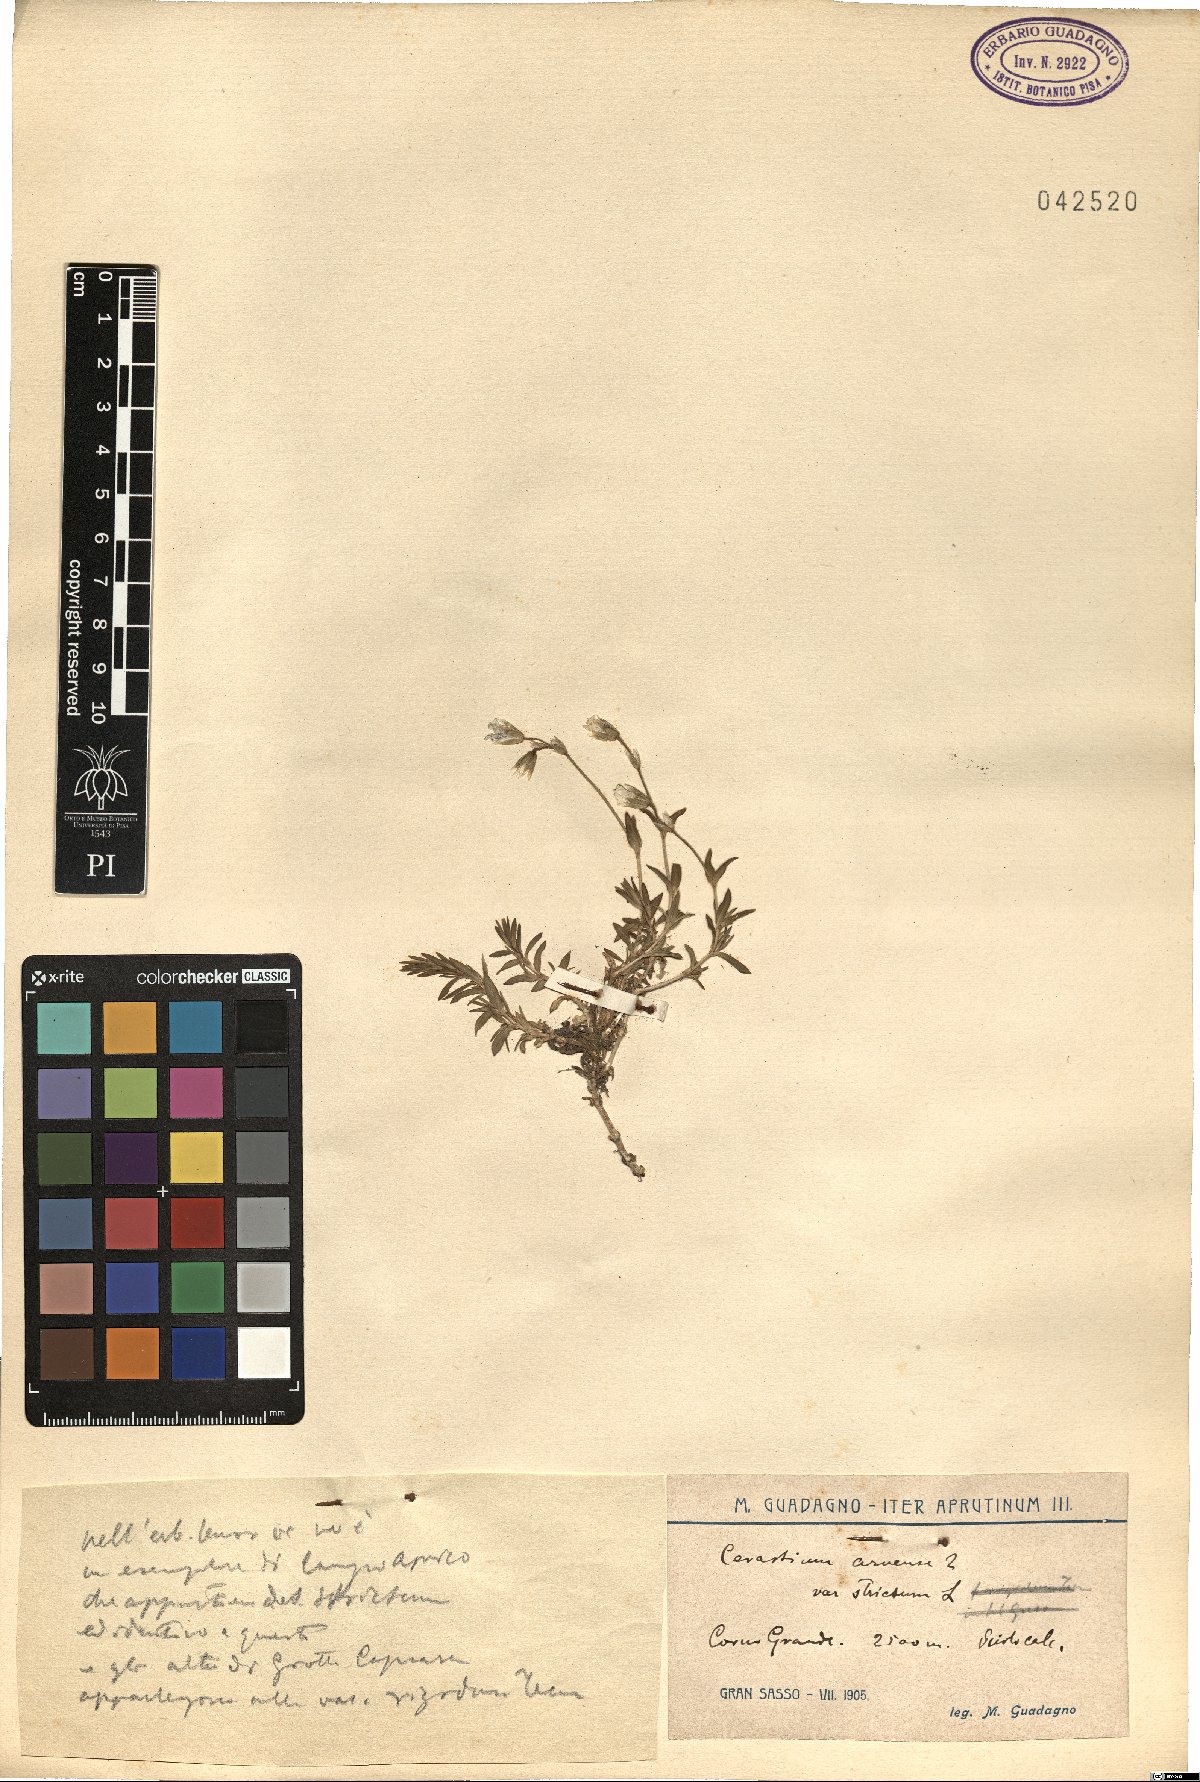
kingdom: Plantae
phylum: Tracheophyta
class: Magnoliopsida
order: Caryophyllales
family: Caryophyllaceae
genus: Cerastium
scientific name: Cerastium elongatum
